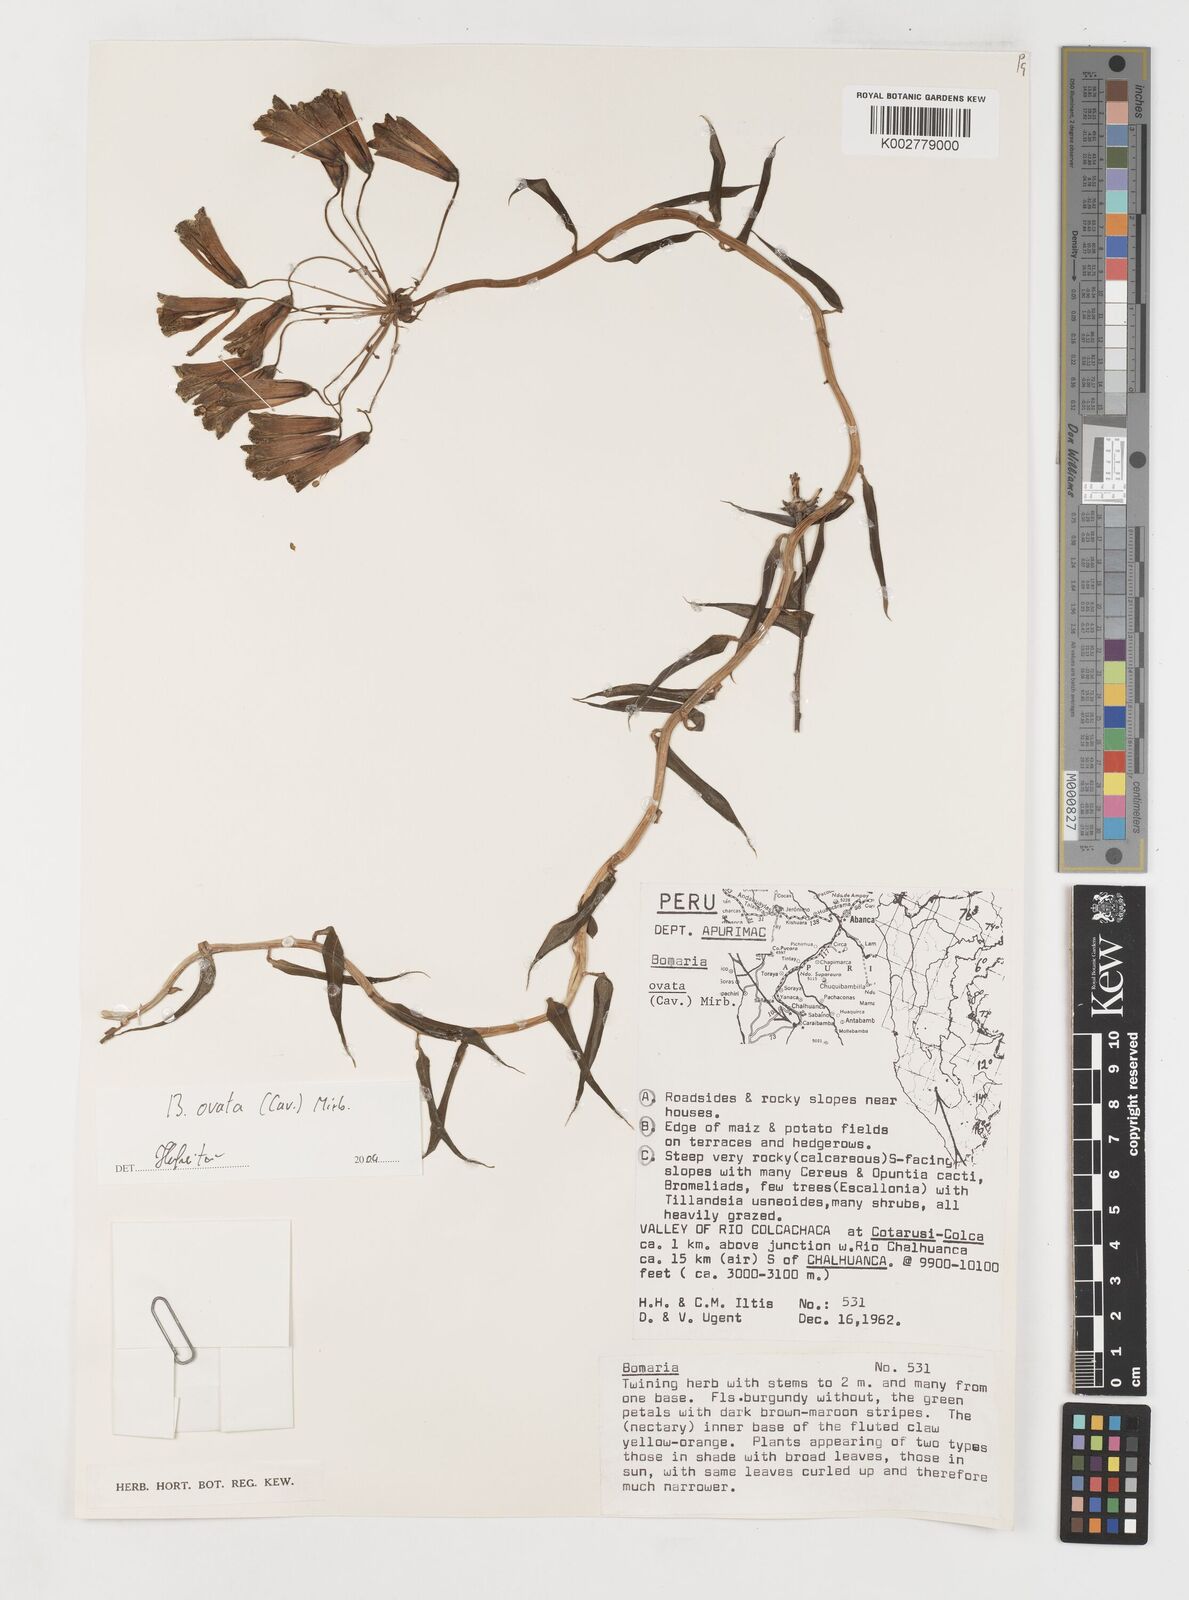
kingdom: Plantae
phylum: Tracheophyta
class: Liliopsida
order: Liliales
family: Alstroemeriaceae
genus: Bomarea
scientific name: Bomarea ovata
